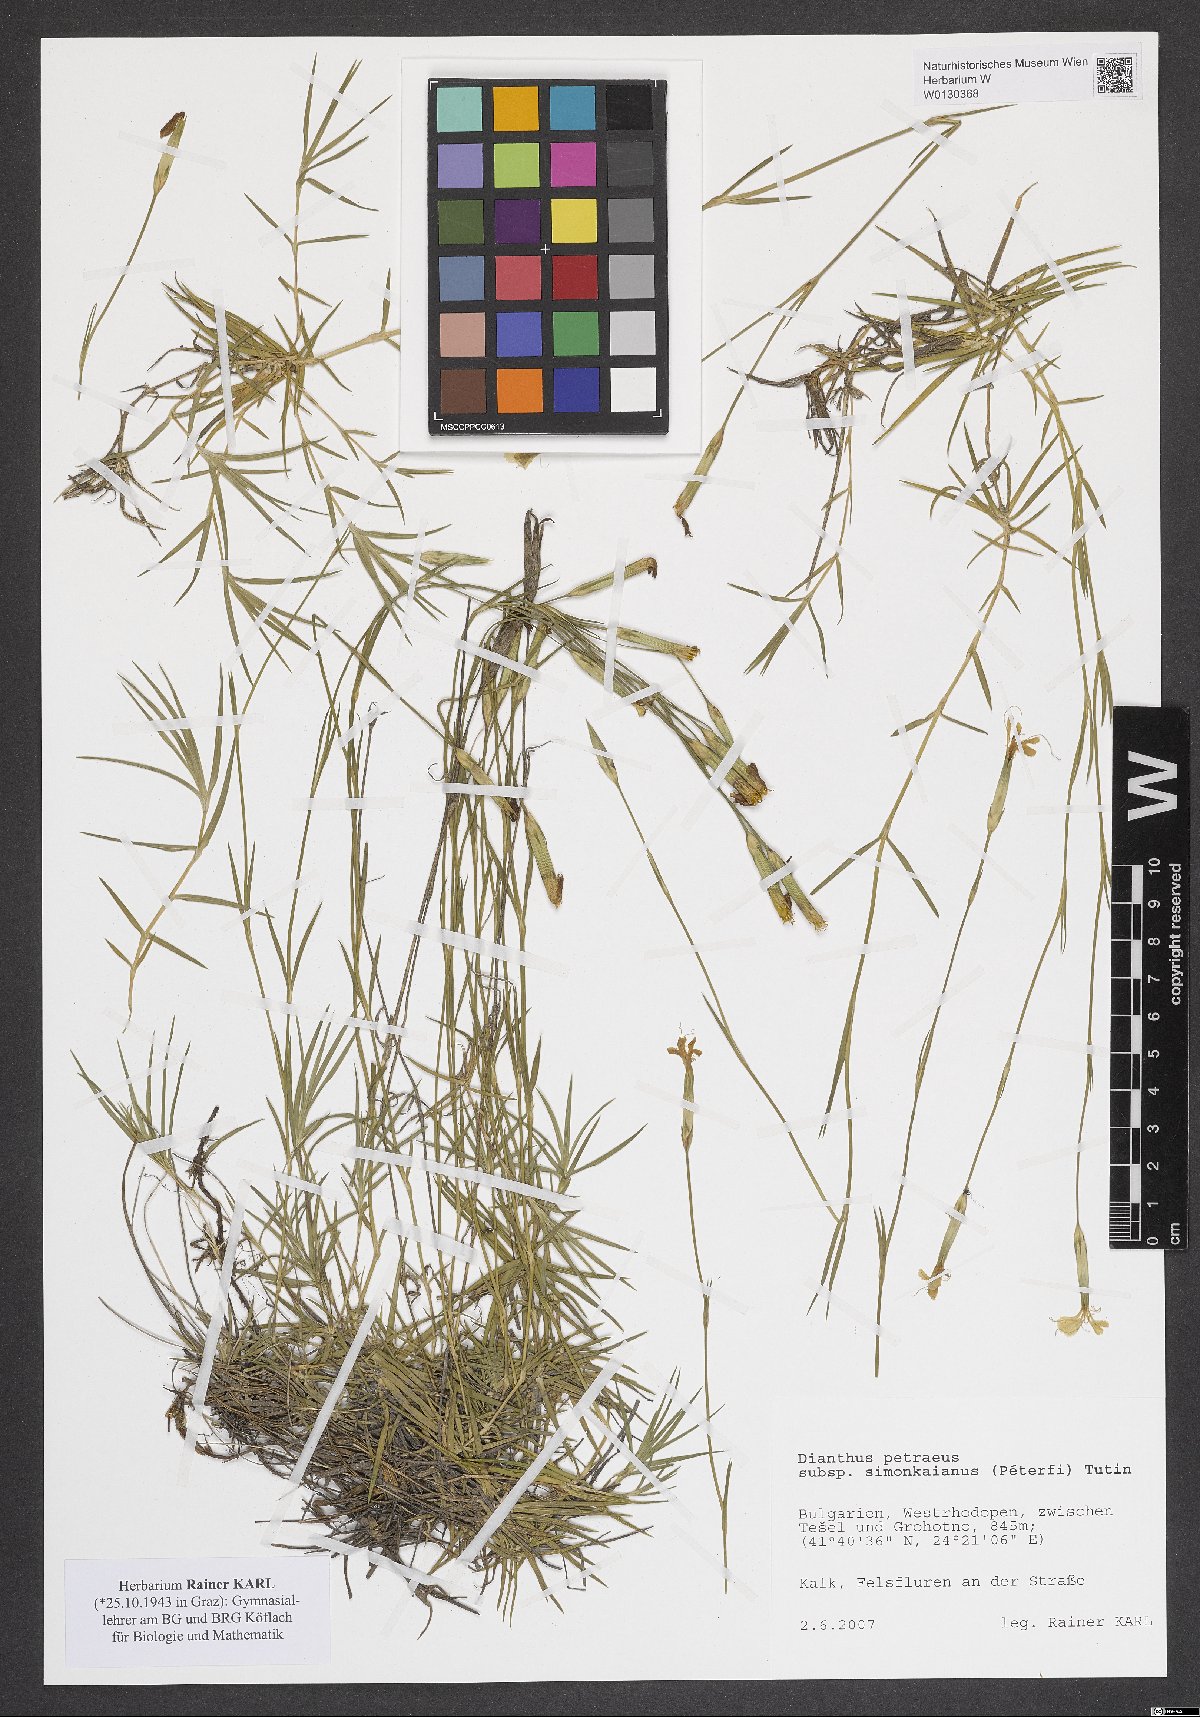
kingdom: Plantae
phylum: Tracheophyta
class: Magnoliopsida
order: Caryophyllales
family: Caryophyllaceae
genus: Dianthus
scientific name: Dianthus petraeus
